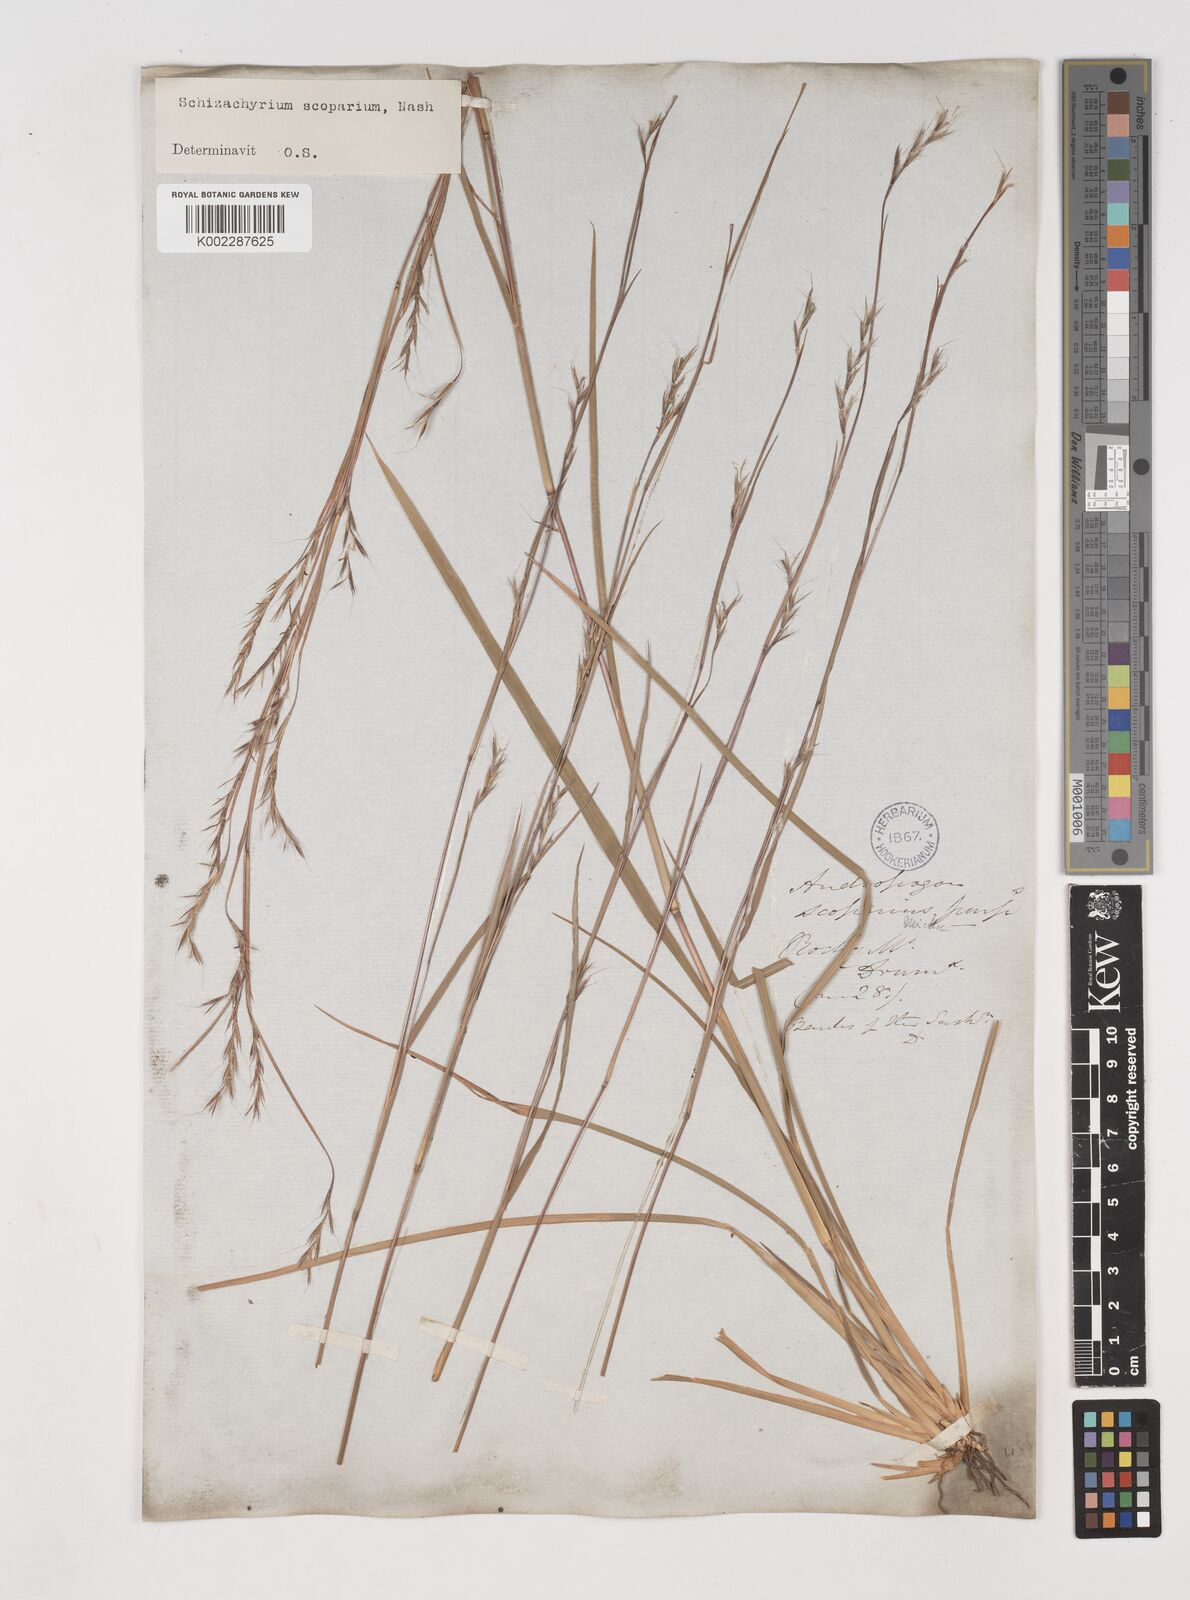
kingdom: Plantae
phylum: Tracheophyta
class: Liliopsida
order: Poales
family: Poaceae
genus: Schizachyrium
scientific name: Schizachyrium scoparium
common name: Little bluestem
